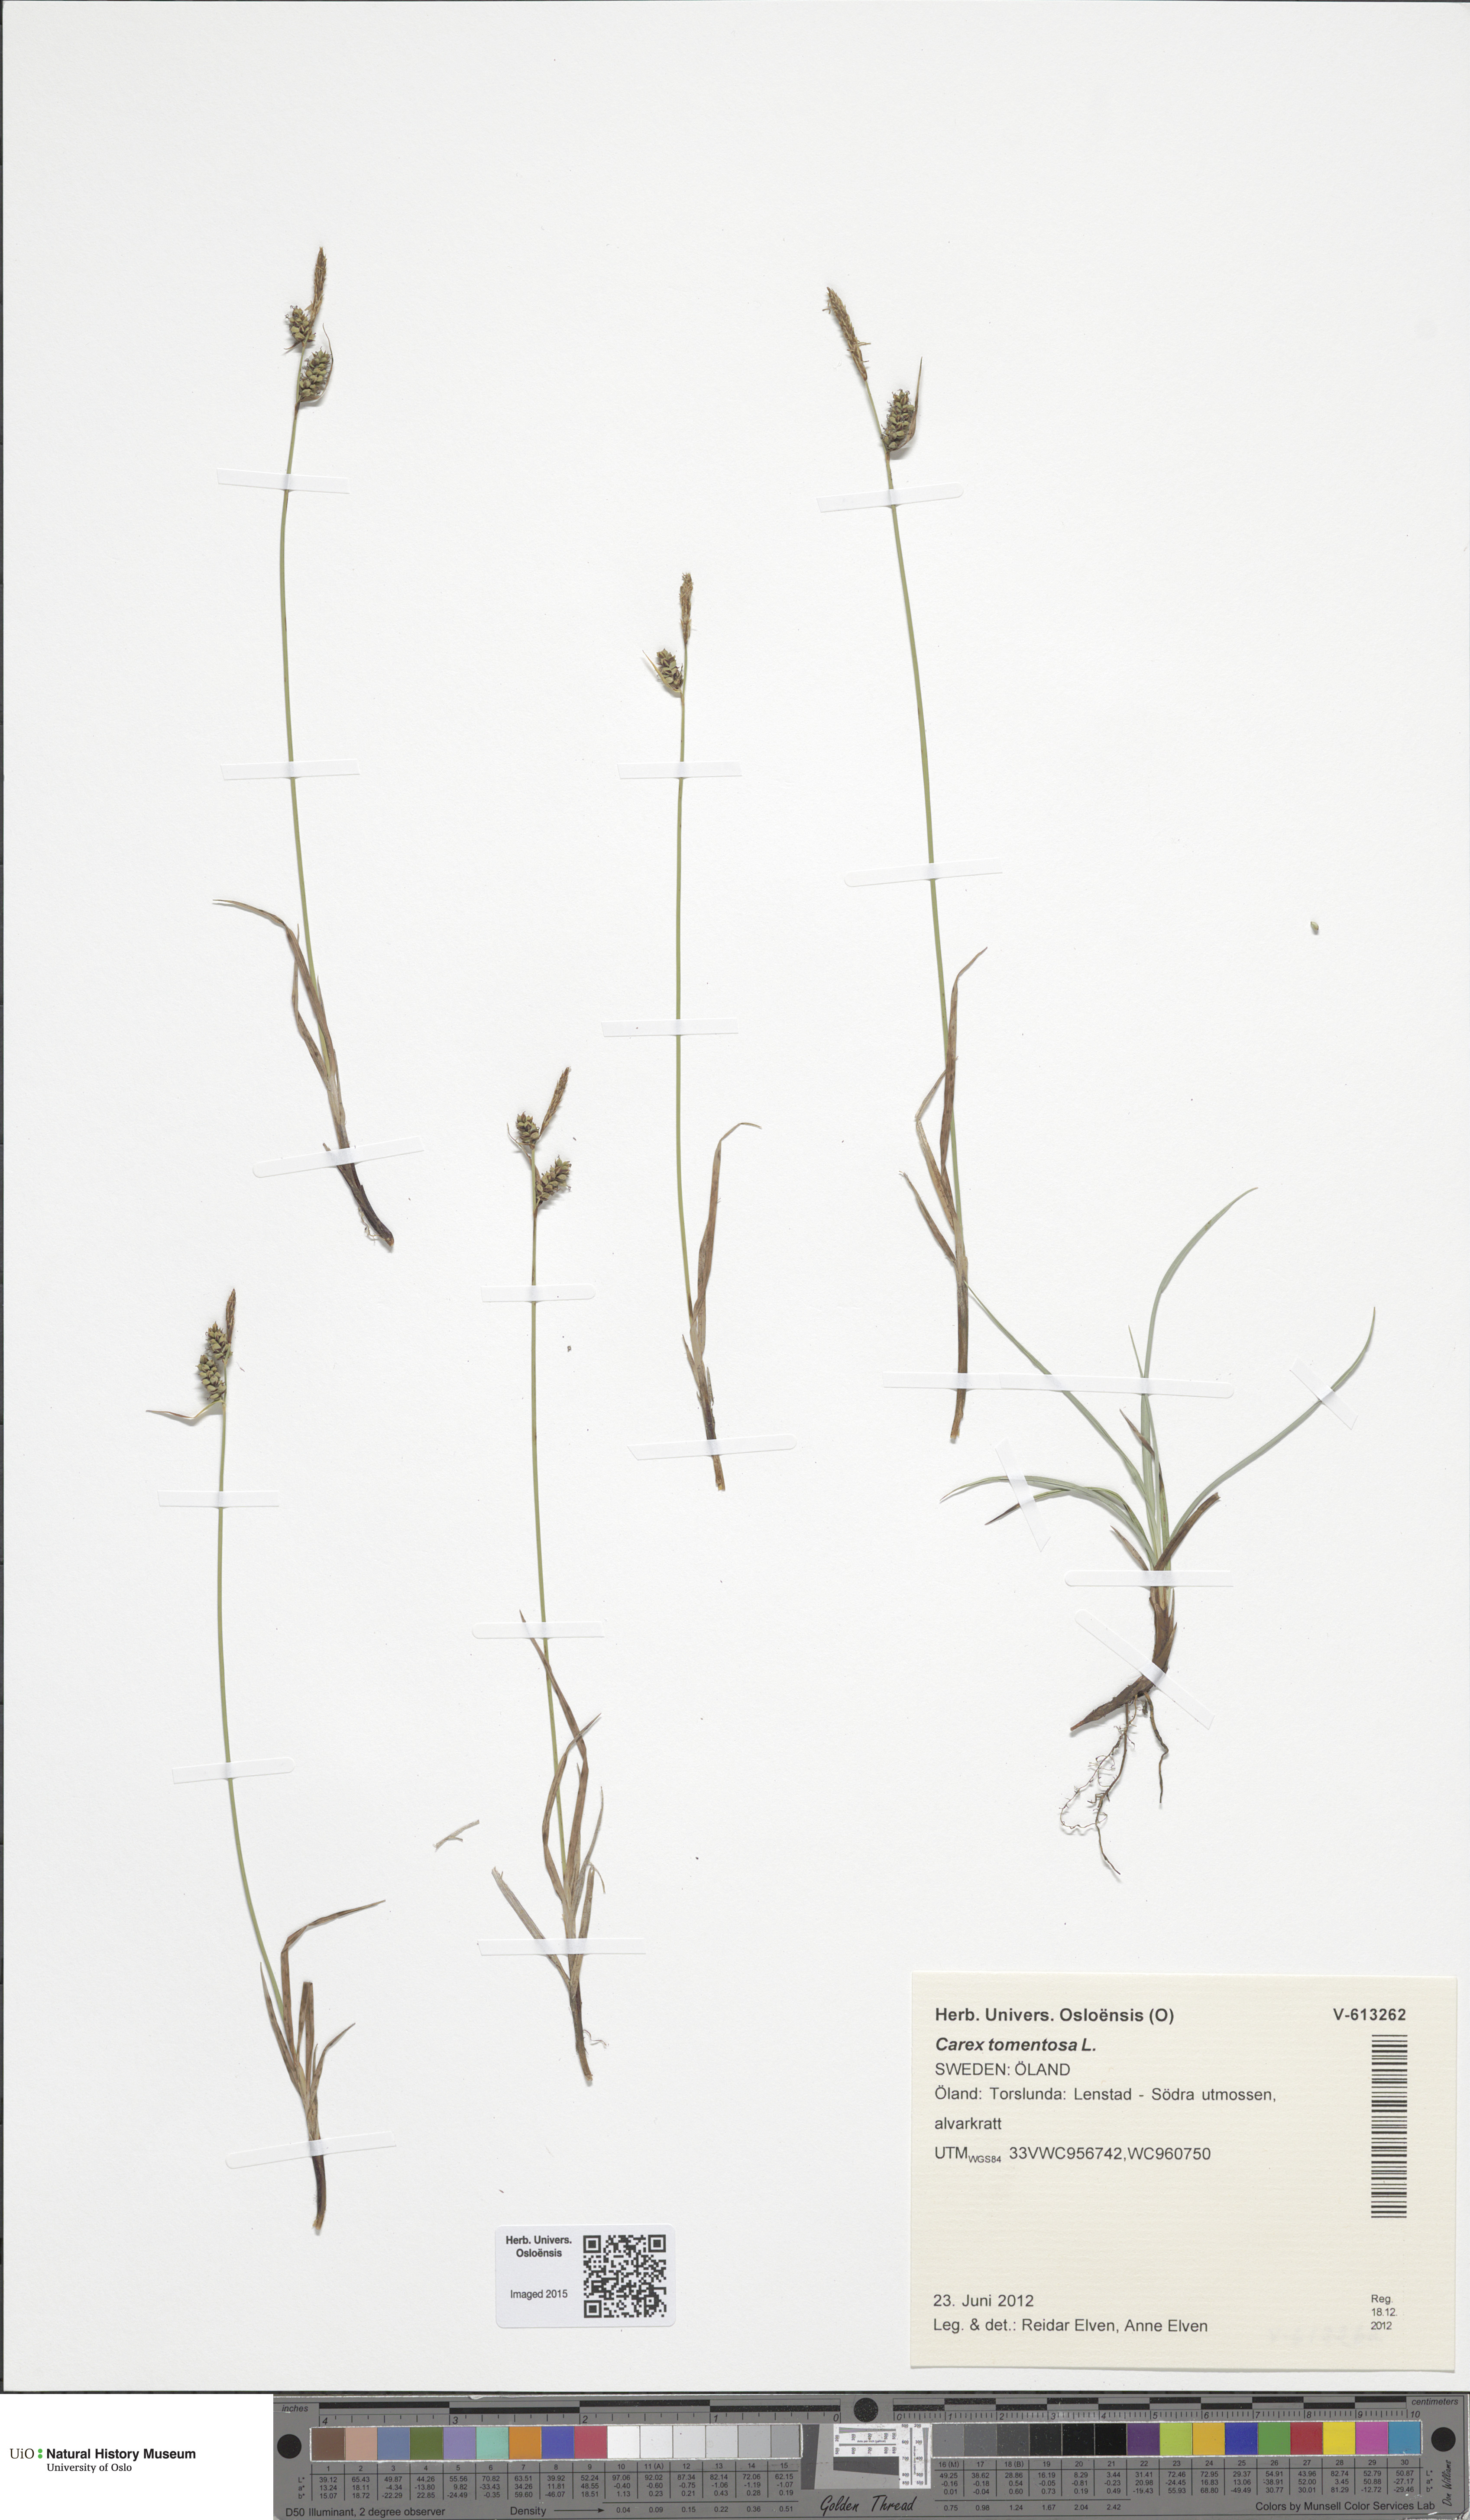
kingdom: Plantae
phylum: Tracheophyta
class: Liliopsida
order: Poales
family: Cyperaceae
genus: Carex
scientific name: Carex montana
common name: Soft-leaved sedge
